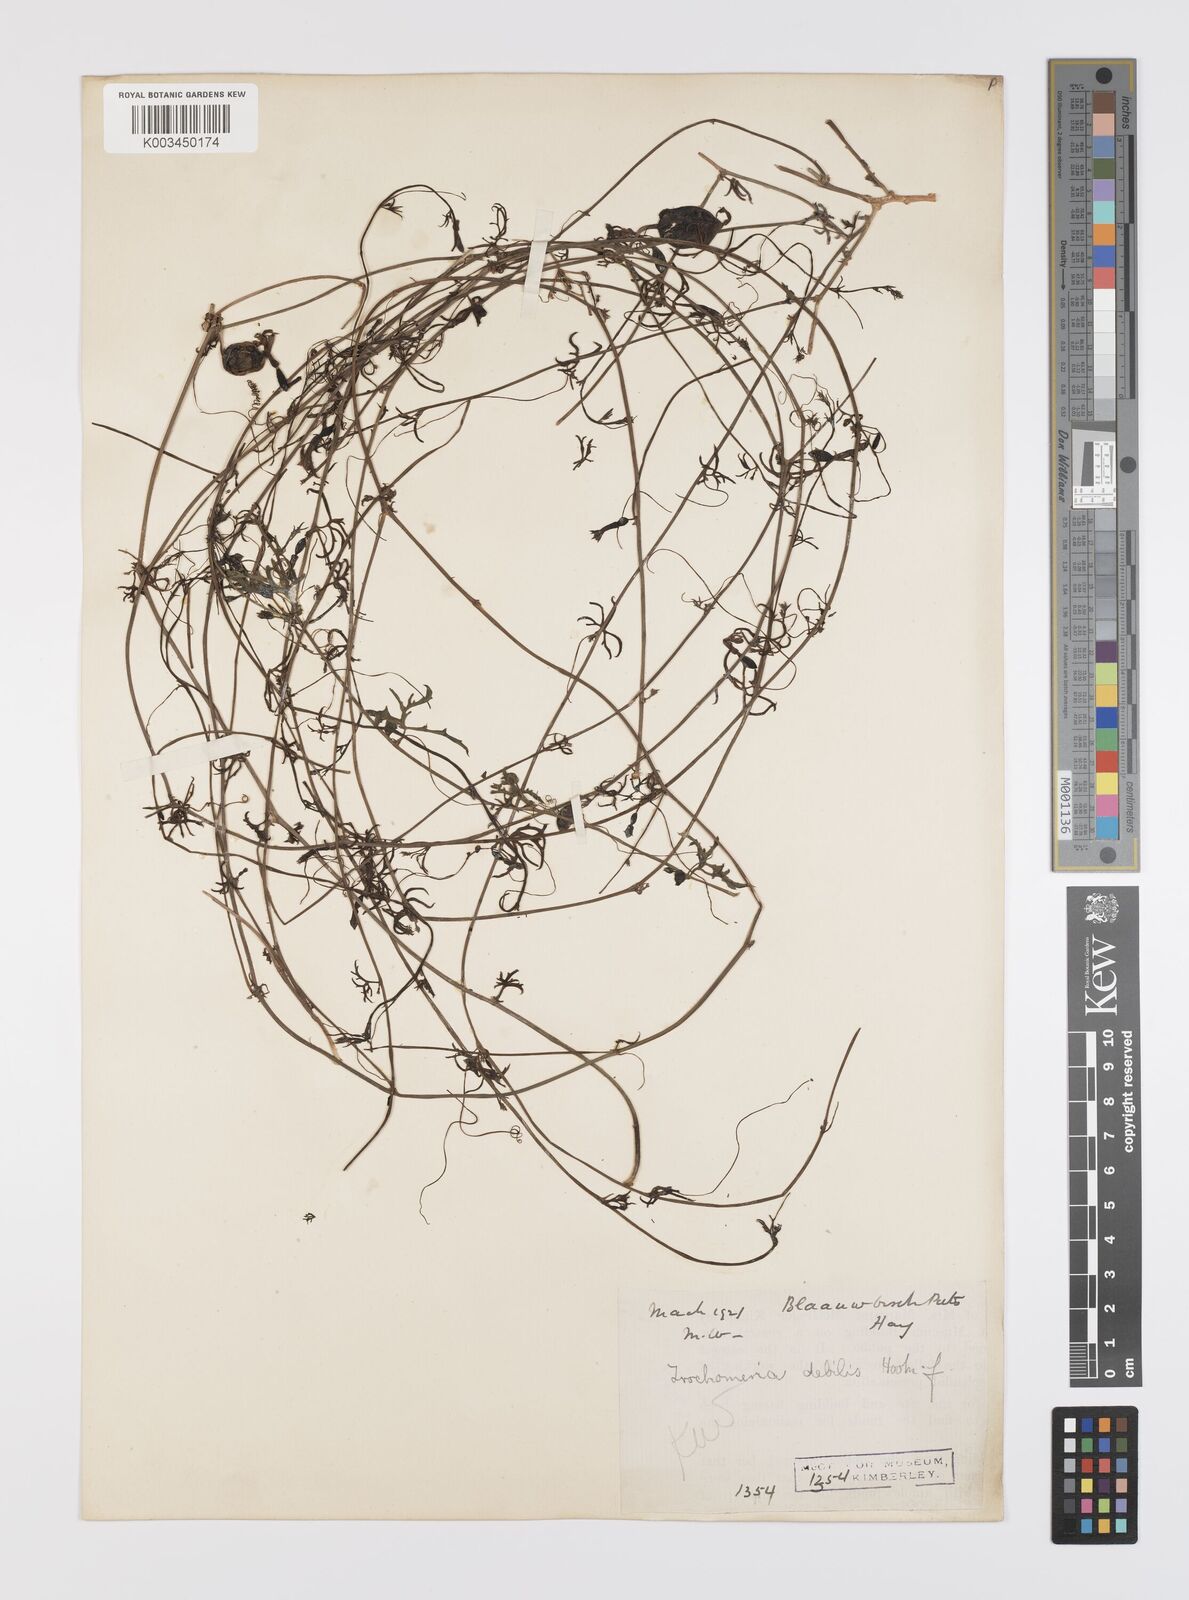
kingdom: Plantae
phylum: Tracheophyta
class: Magnoliopsida
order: Cucurbitales
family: Cucurbitaceae
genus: Trochomeria
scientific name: Trochomeria debilis
